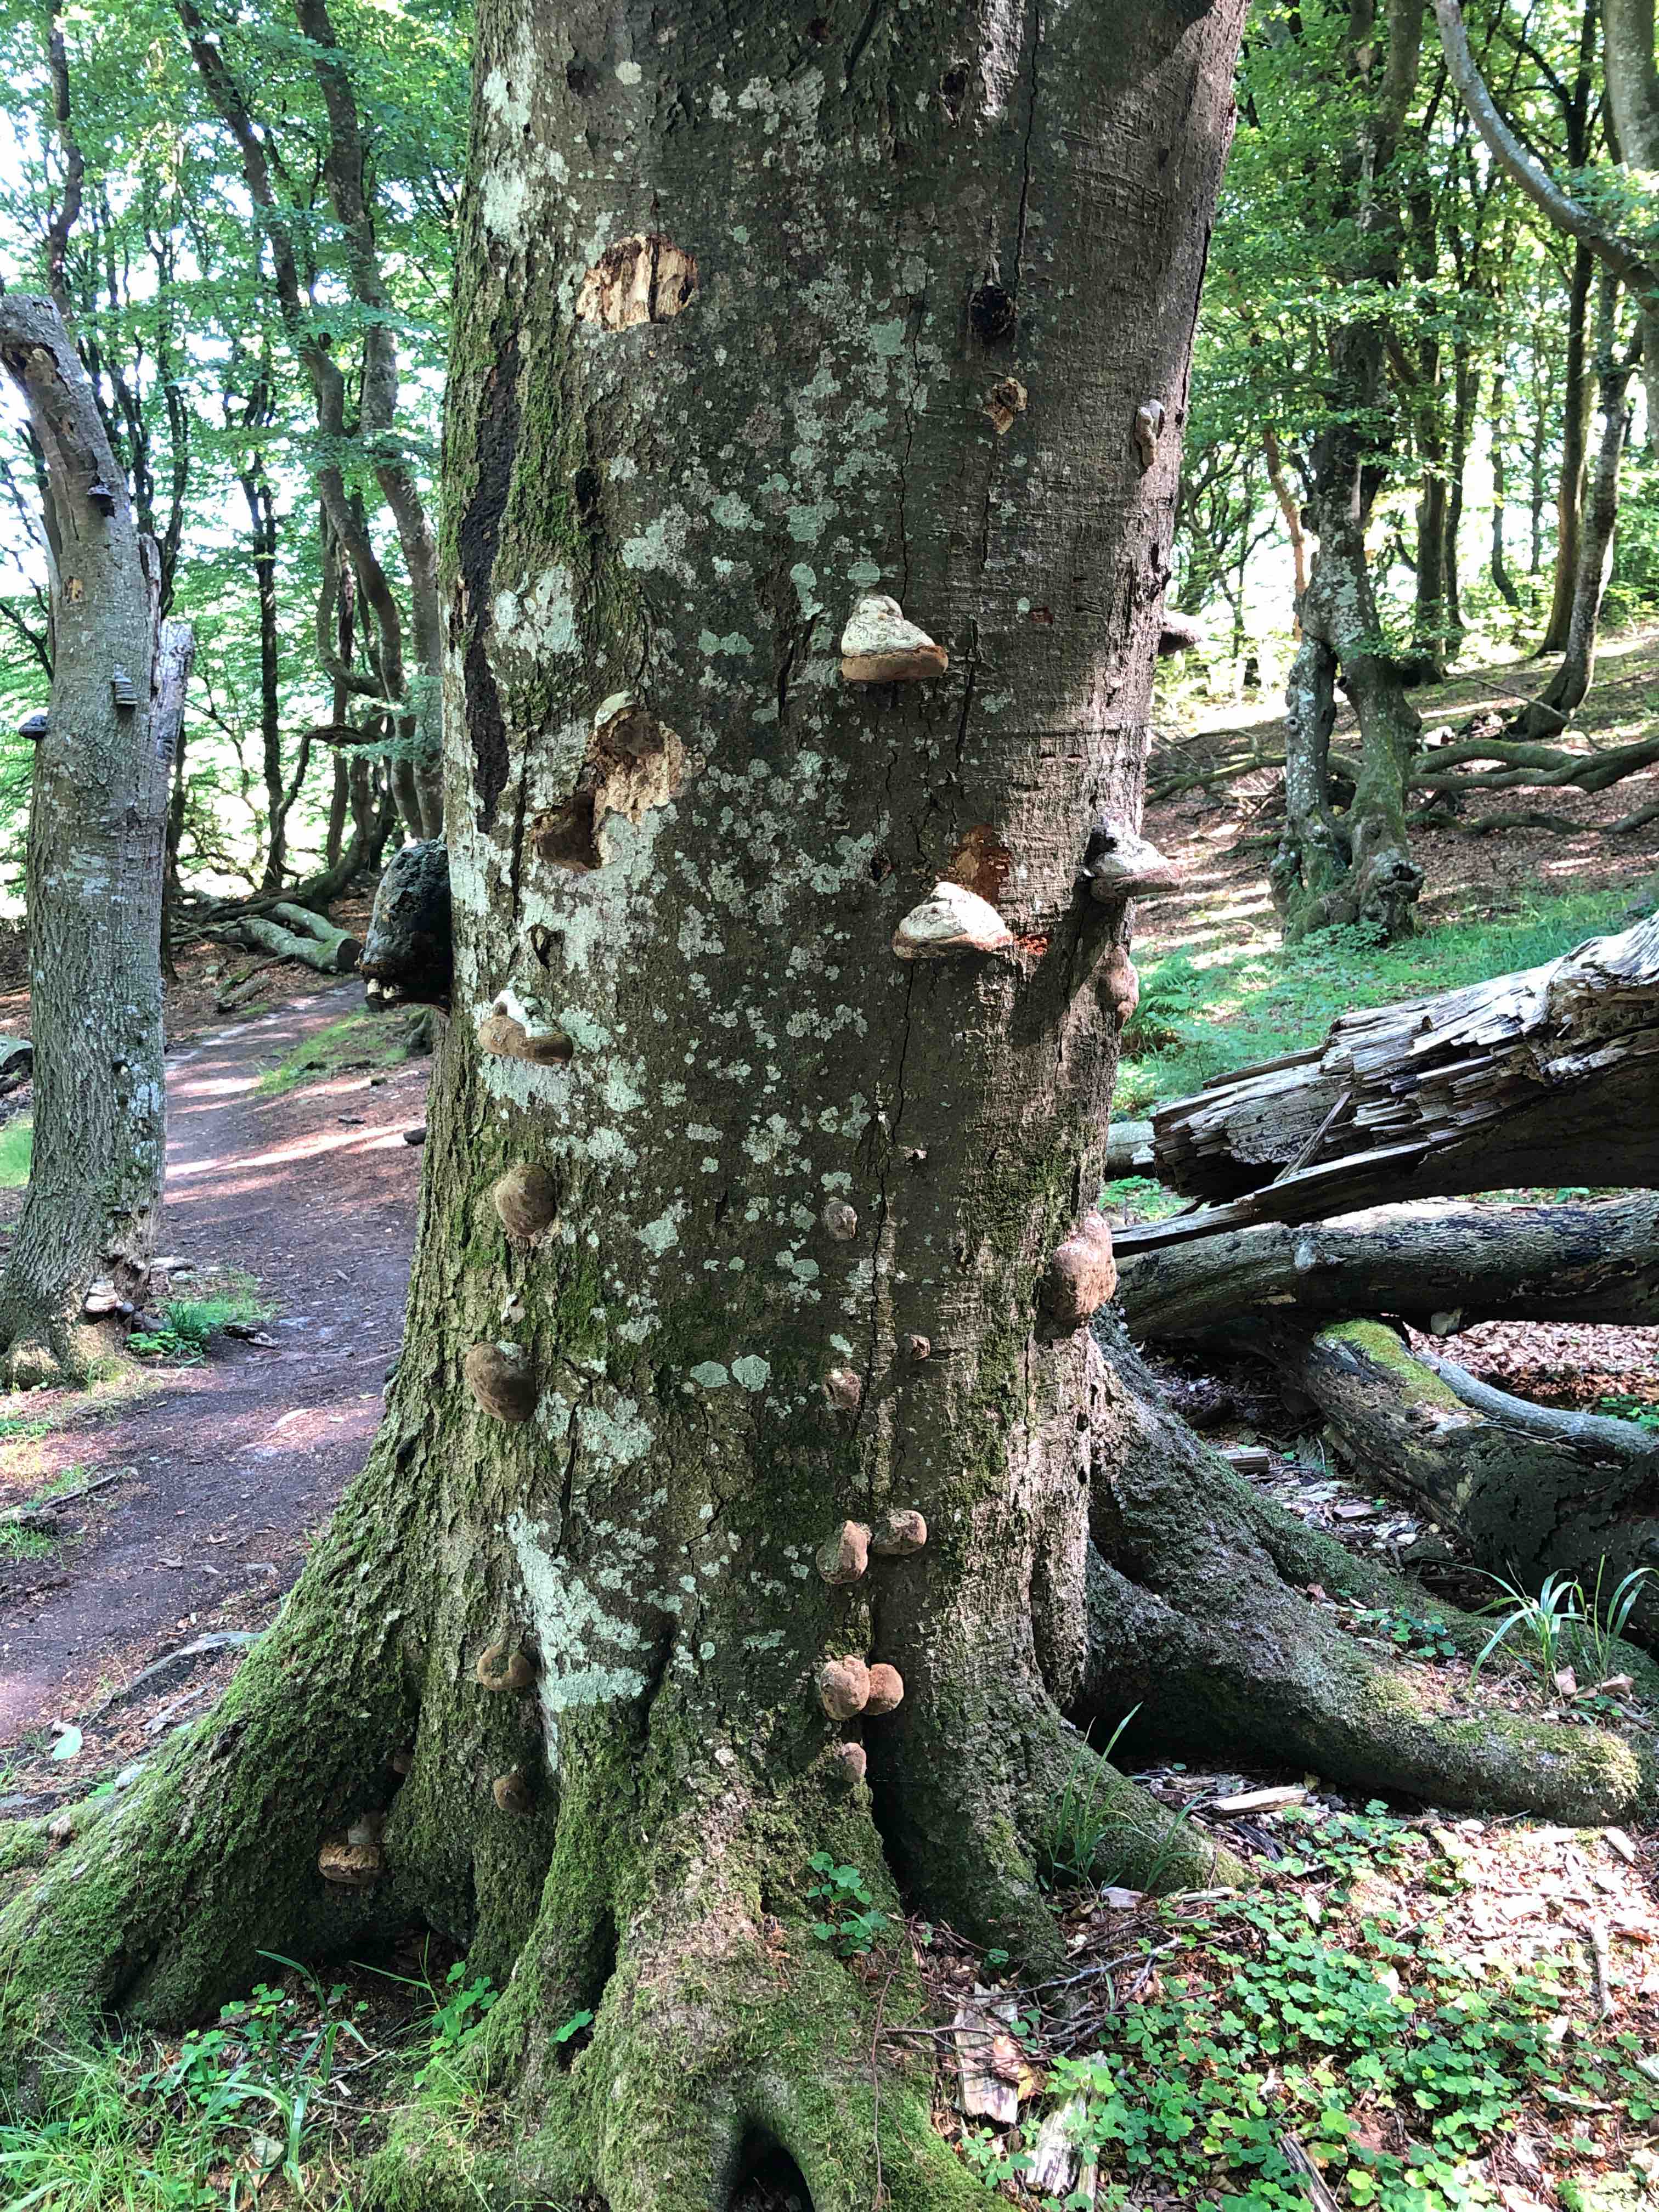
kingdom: Fungi
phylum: Basidiomycota
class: Agaricomycetes
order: Polyporales
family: Polyporaceae
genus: Fomes
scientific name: Fomes fomentarius
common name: tøndersvamp
